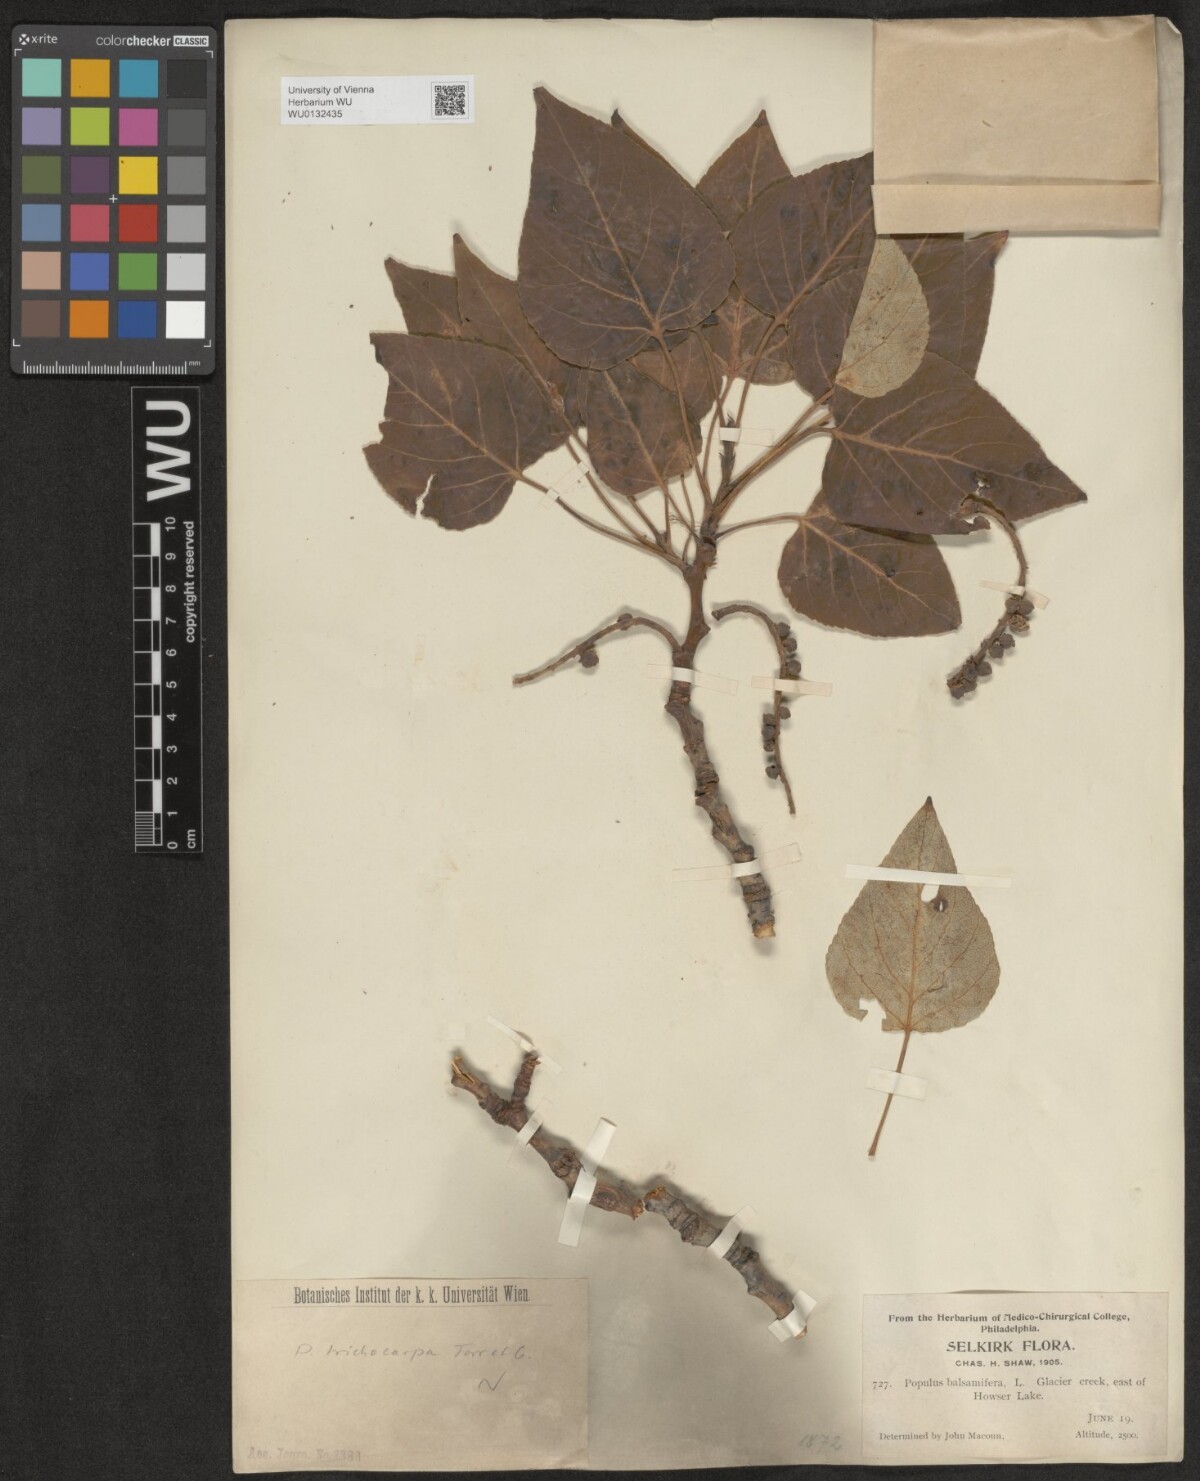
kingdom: Plantae
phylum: Tracheophyta
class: Magnoliopsida
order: Malpighiales
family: Salicaceae
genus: Populus
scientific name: Populus trichocarpa
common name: Black cottonwood
